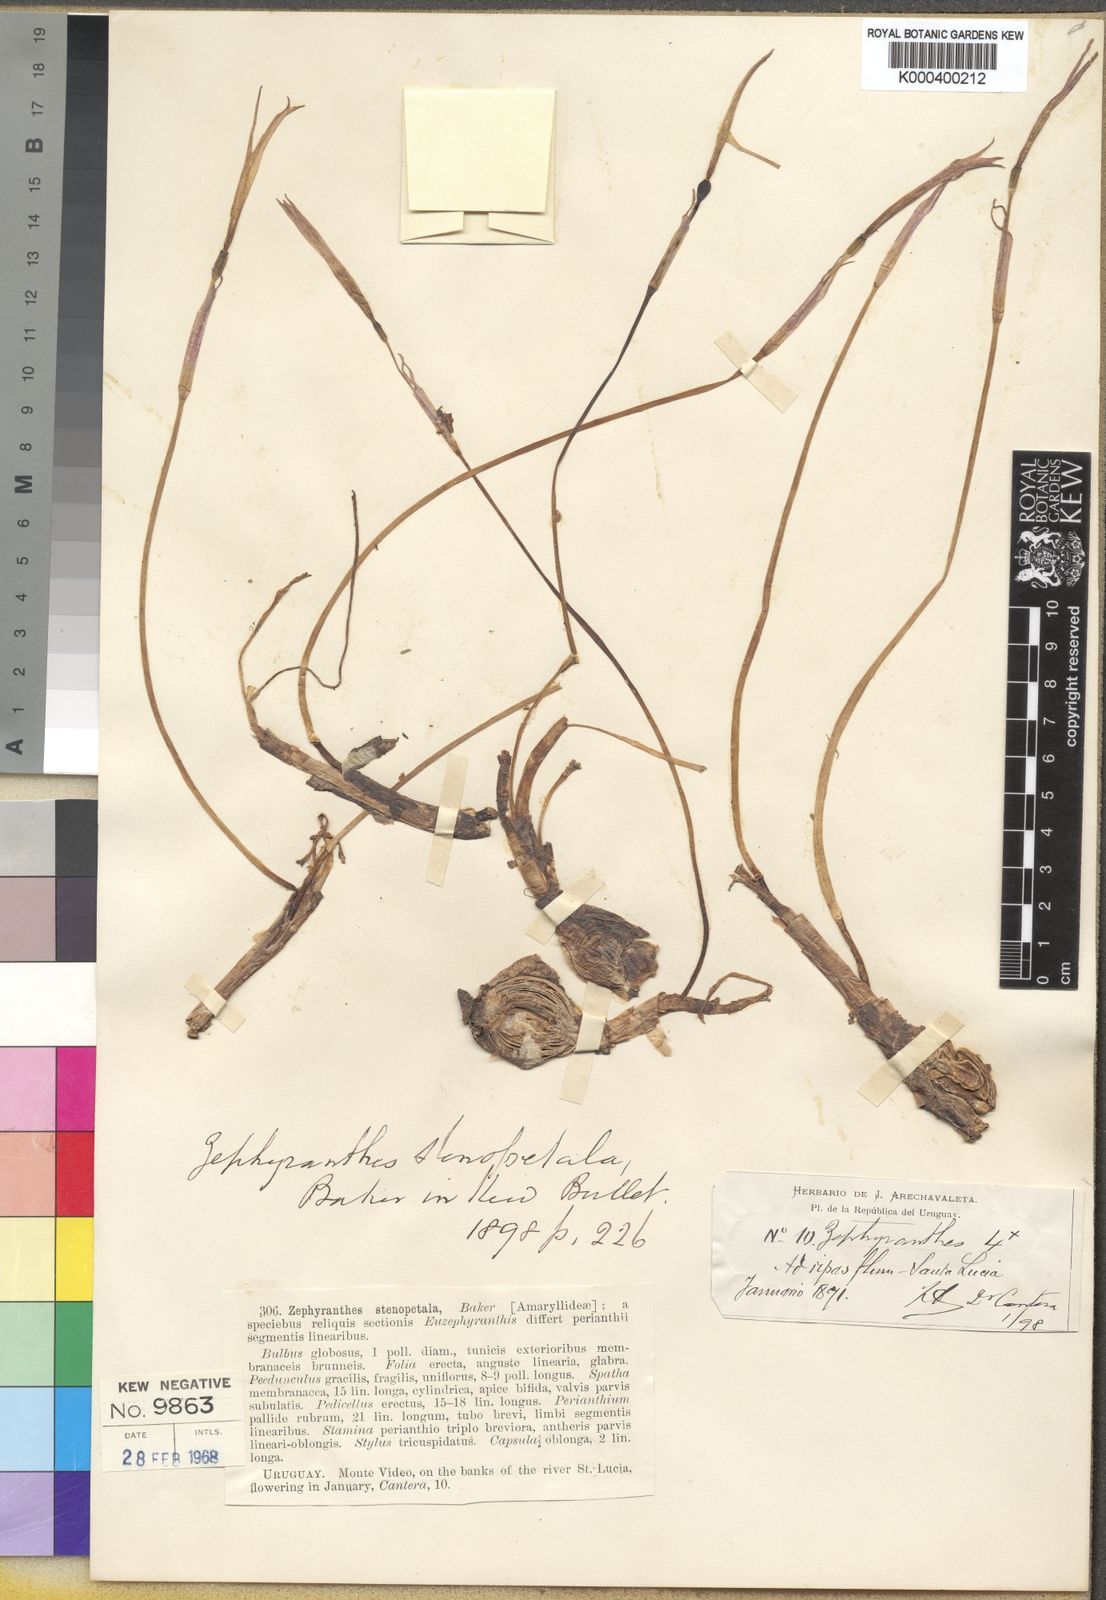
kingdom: Plantae
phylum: Tracheophyta
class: Liliopsida
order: Asparagales
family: Amaryllidaceae
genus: Zephyranthes
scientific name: Zephyranthes mesochloa
